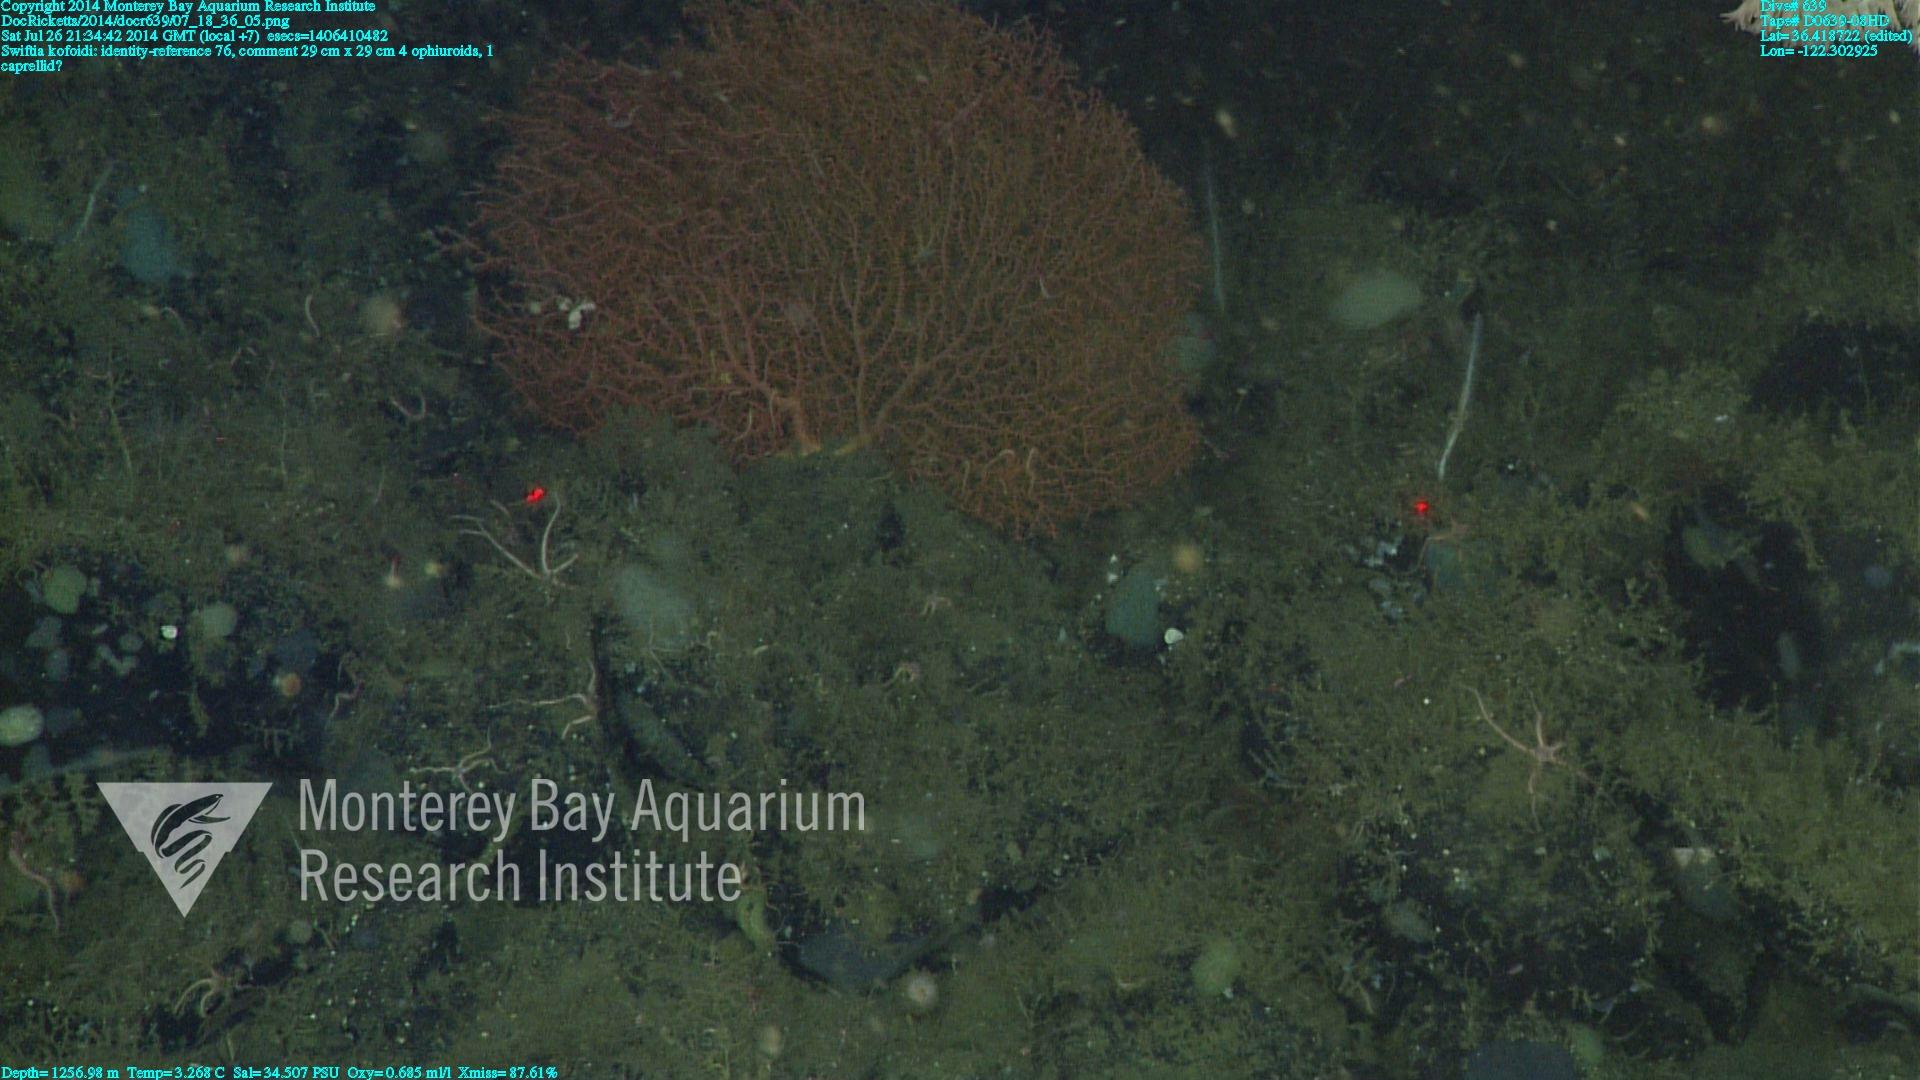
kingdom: Animalia
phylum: Cnidaria
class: Anthozoa
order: Malacalcyonacea
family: Gorgoniidae
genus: Callistephanus
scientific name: Callistephanus kofoidi
